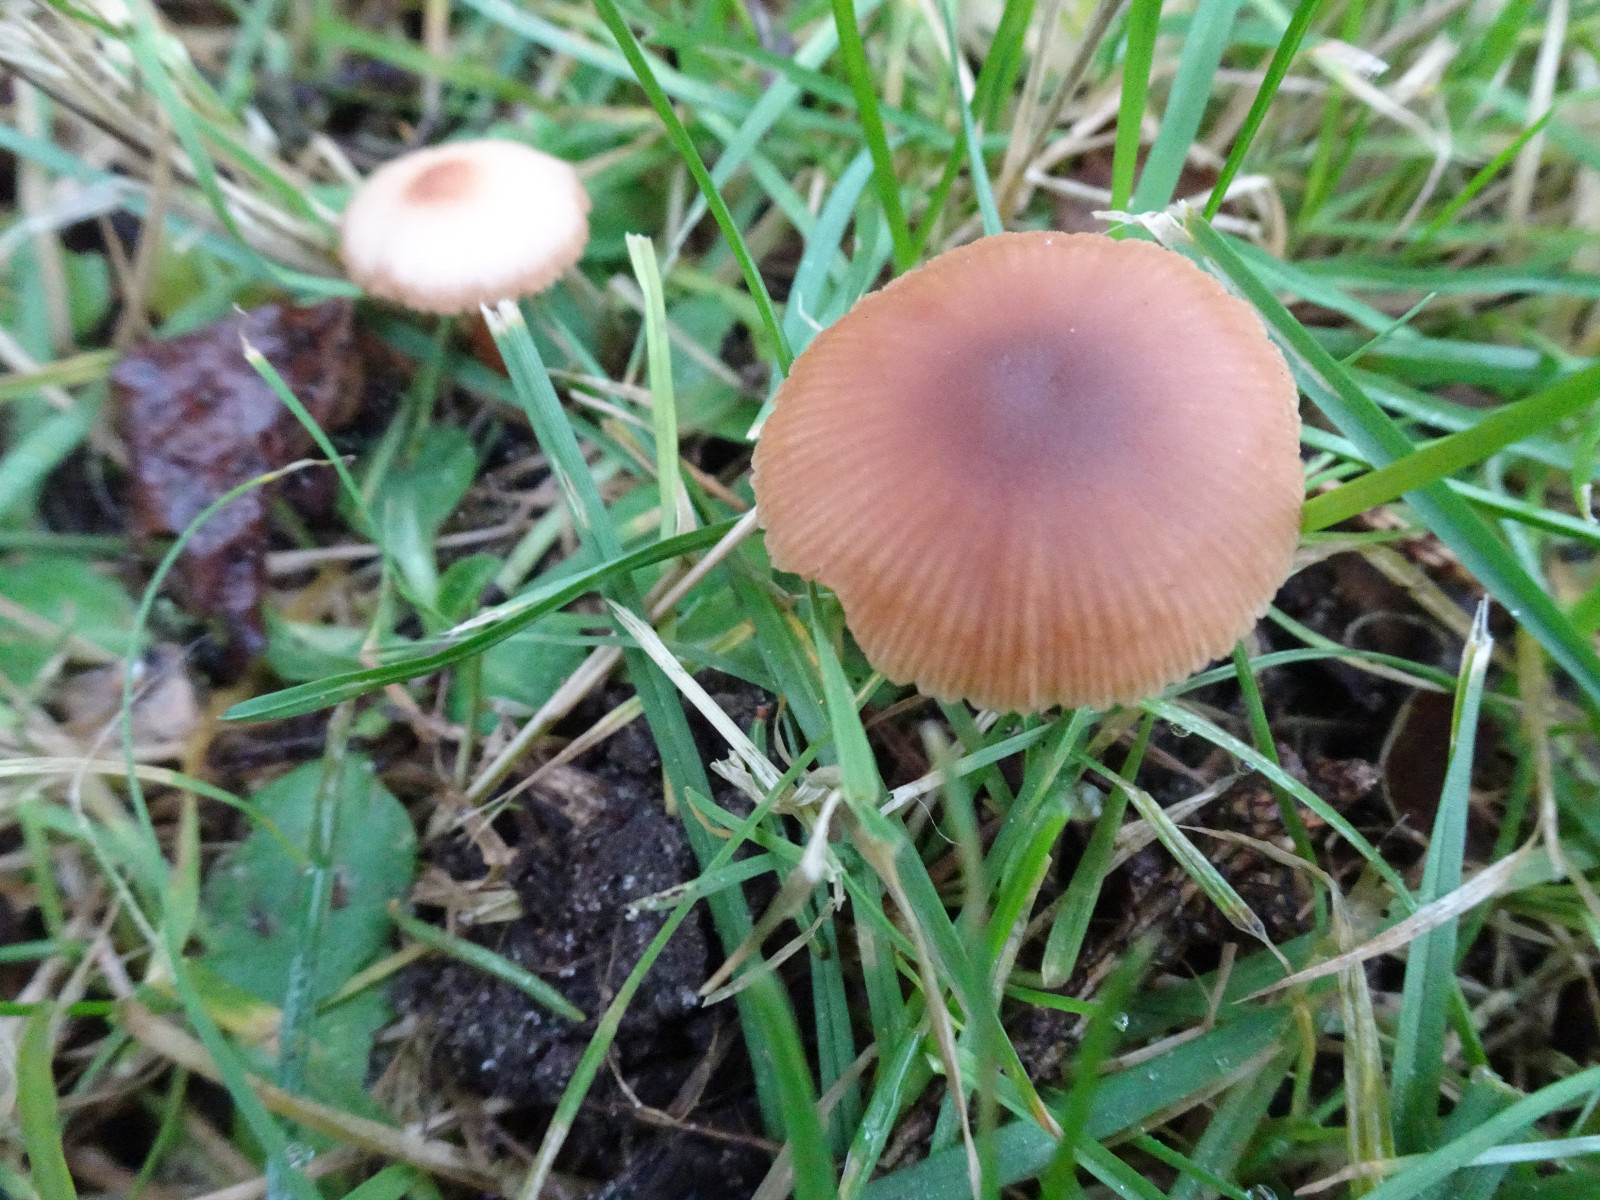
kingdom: Fungi
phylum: Basidiomycota
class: Agaricomycetes
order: Agaricales
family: Tubariaceae
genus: Tubaria
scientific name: Tubaria furfuracea
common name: kliddet fnughat
